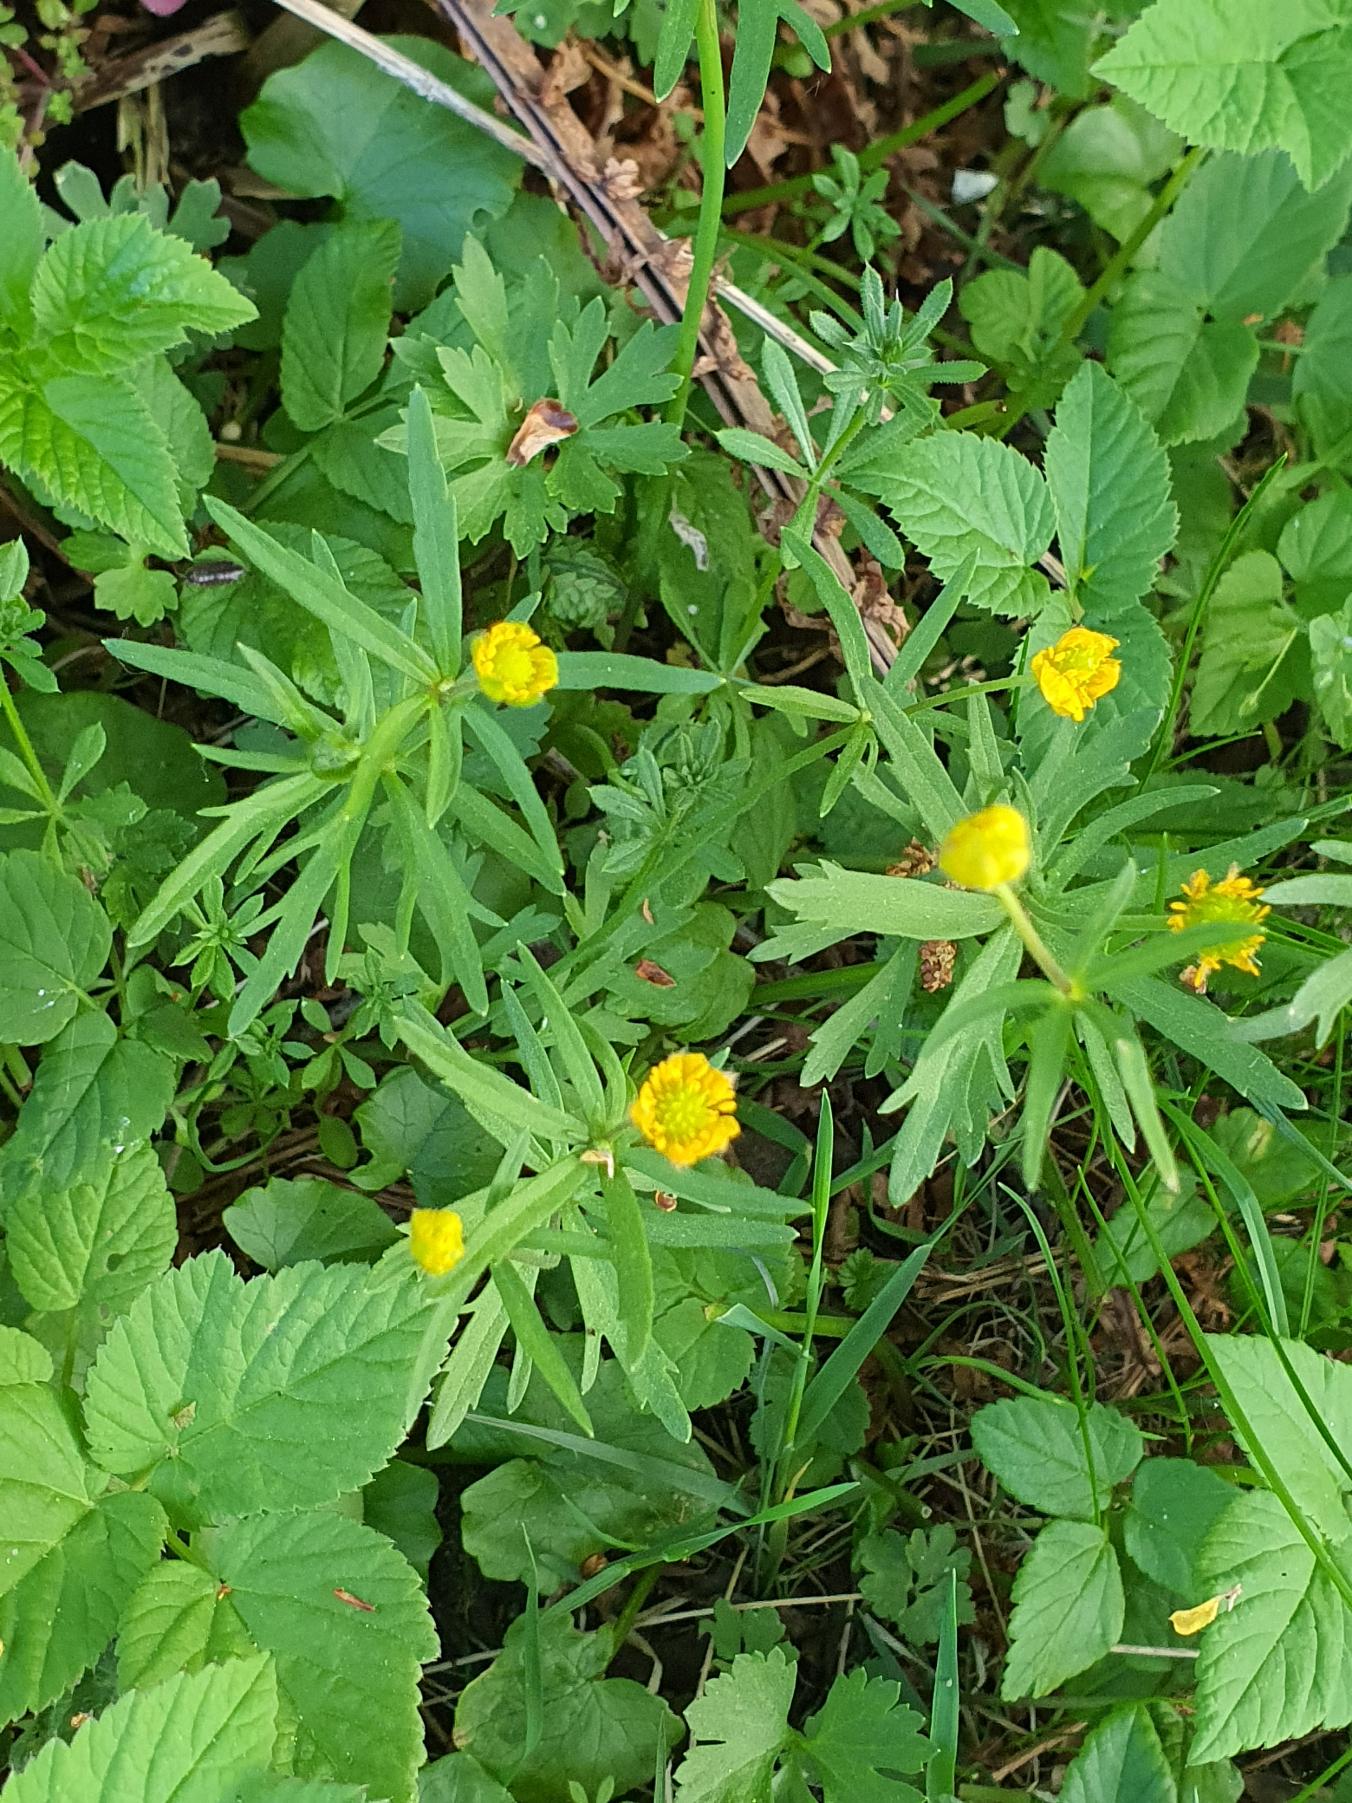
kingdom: Plantae
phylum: Tracheophyta
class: Magnoliopsida
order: Ranunculales
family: Ranunculaceae
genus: Ranunculus
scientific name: Ranunculus auricomus
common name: Nyrebladet ranunkel
